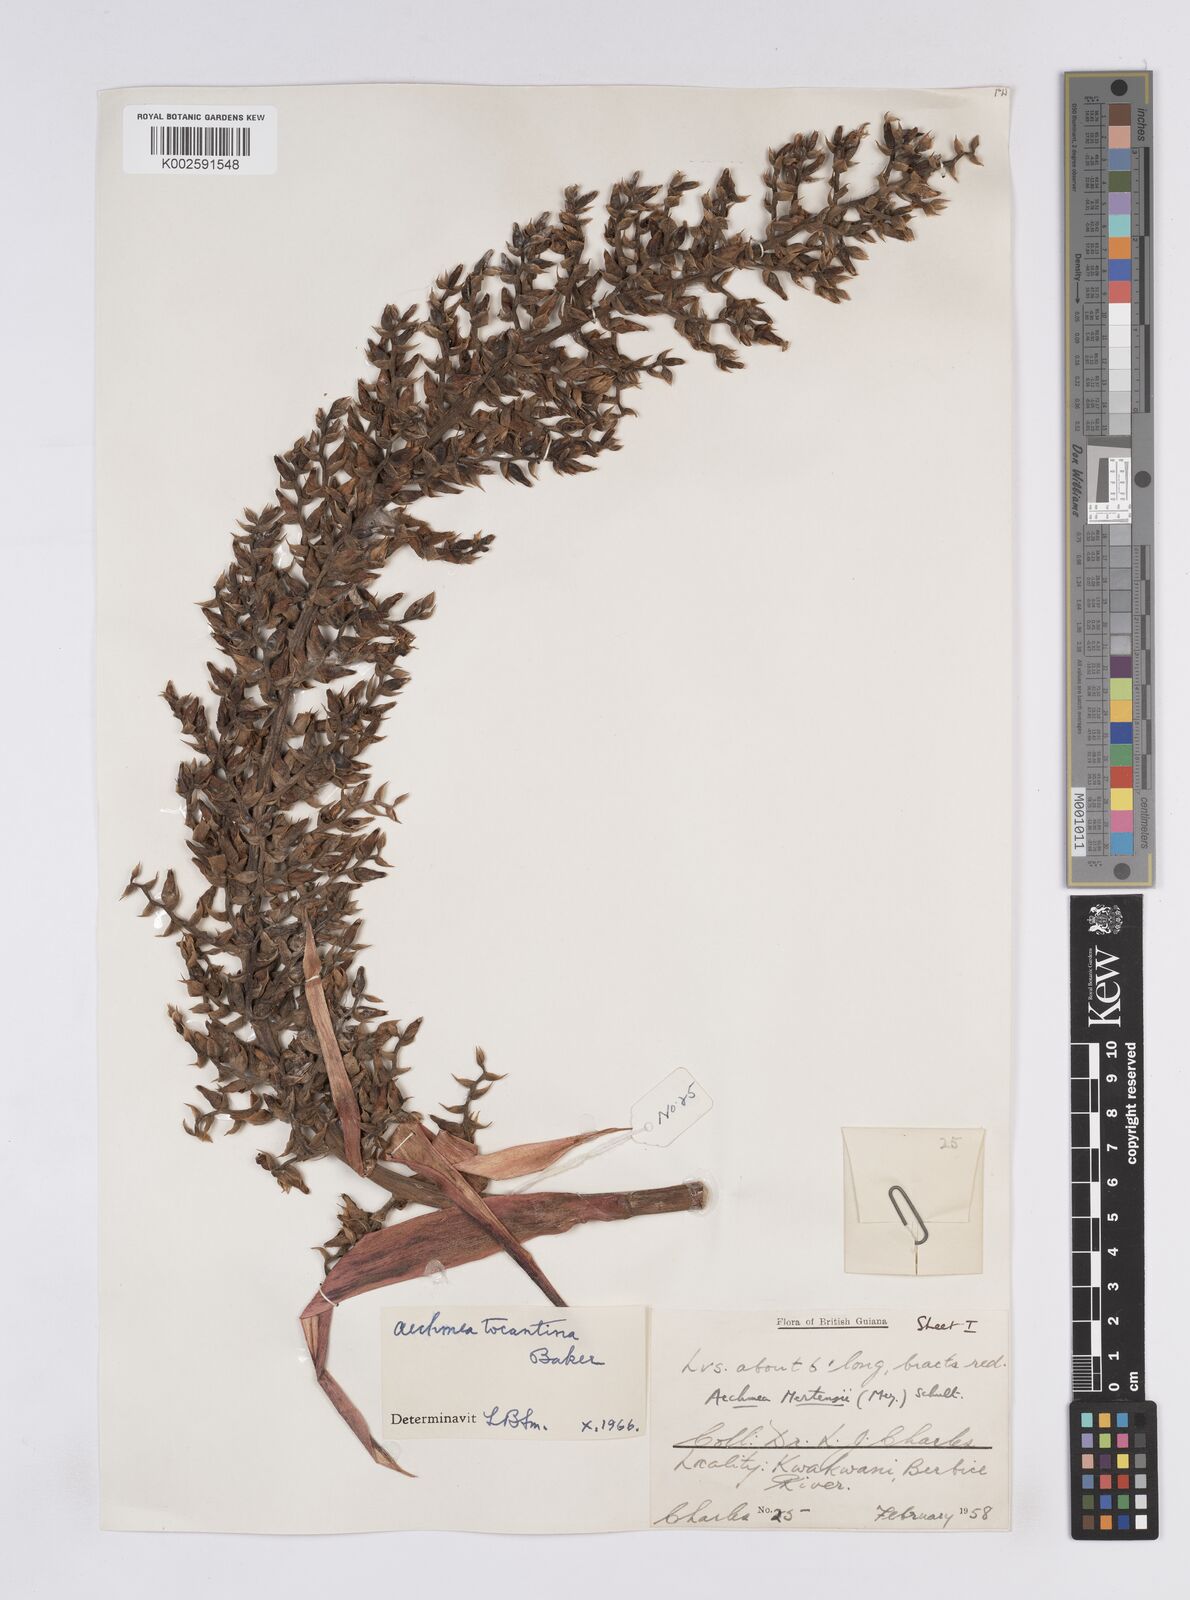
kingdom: Plantae
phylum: Tracheophyta
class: Liliopsida
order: Poales
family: Bromeliaceae
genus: Aechmea
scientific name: Aechmea tocantina
